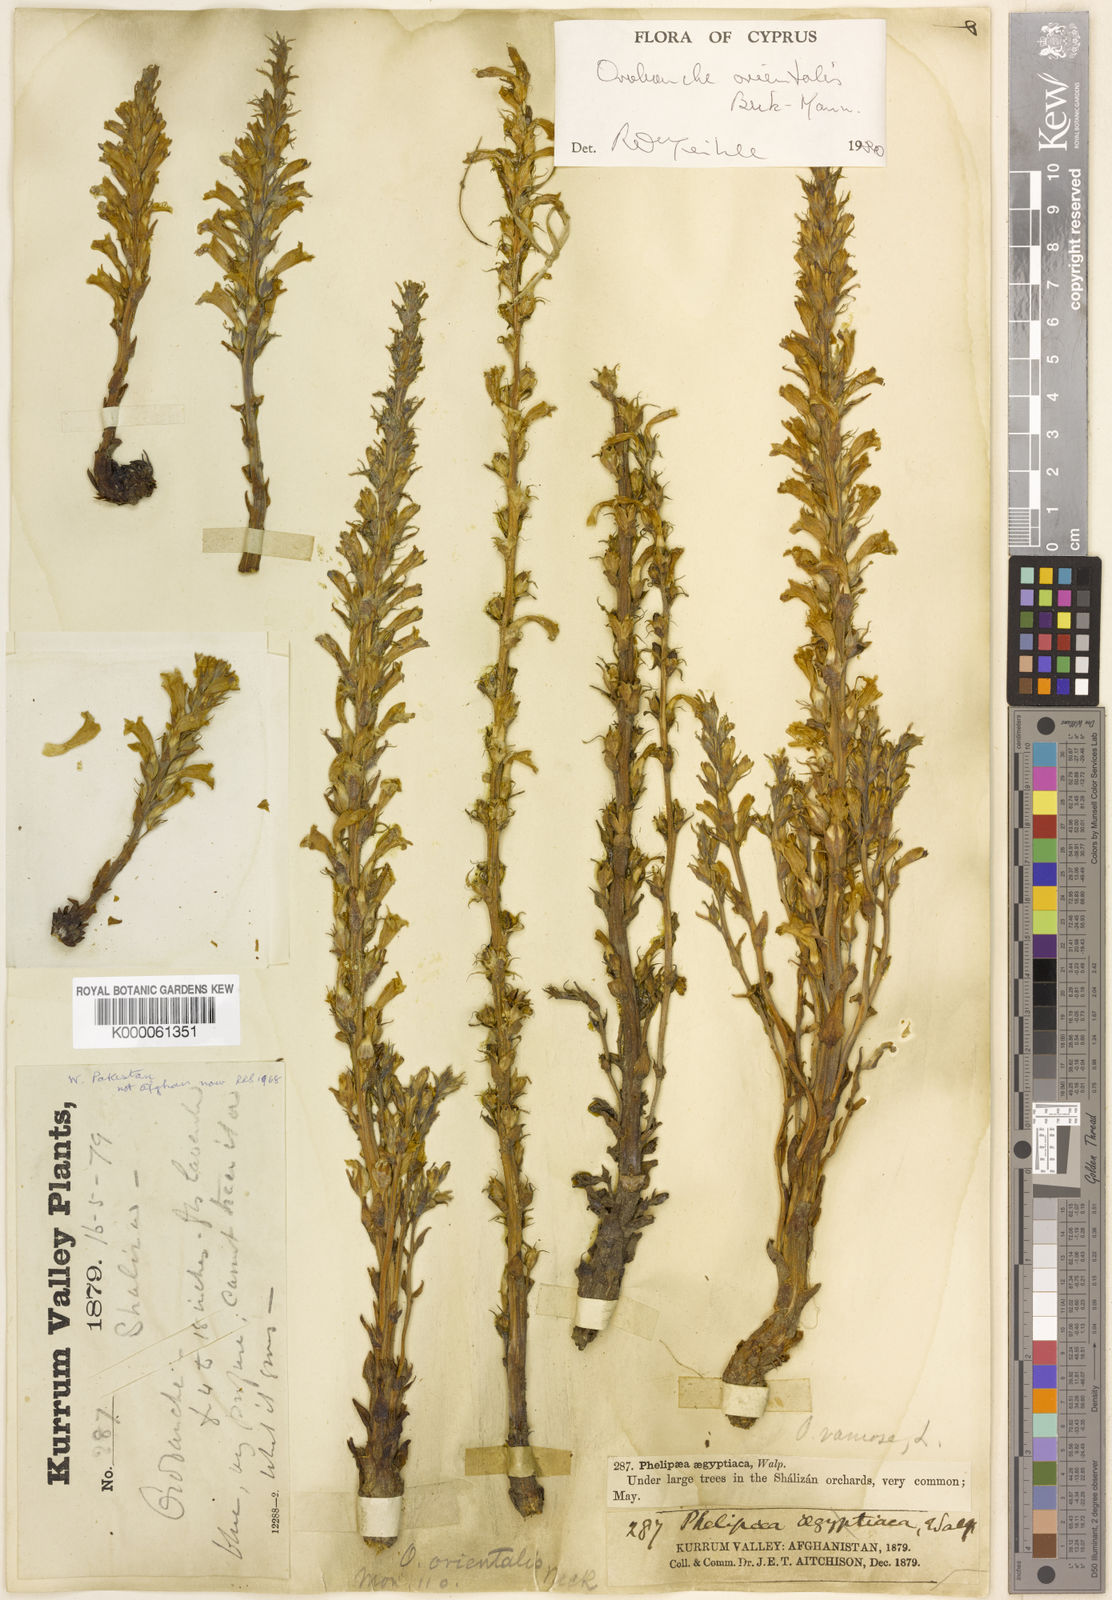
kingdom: Plantae
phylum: Tracheophyta
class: Magnoliopsida
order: Lamiales
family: Orobanchaceae
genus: Phelipanche
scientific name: Phelipanche orientalis
